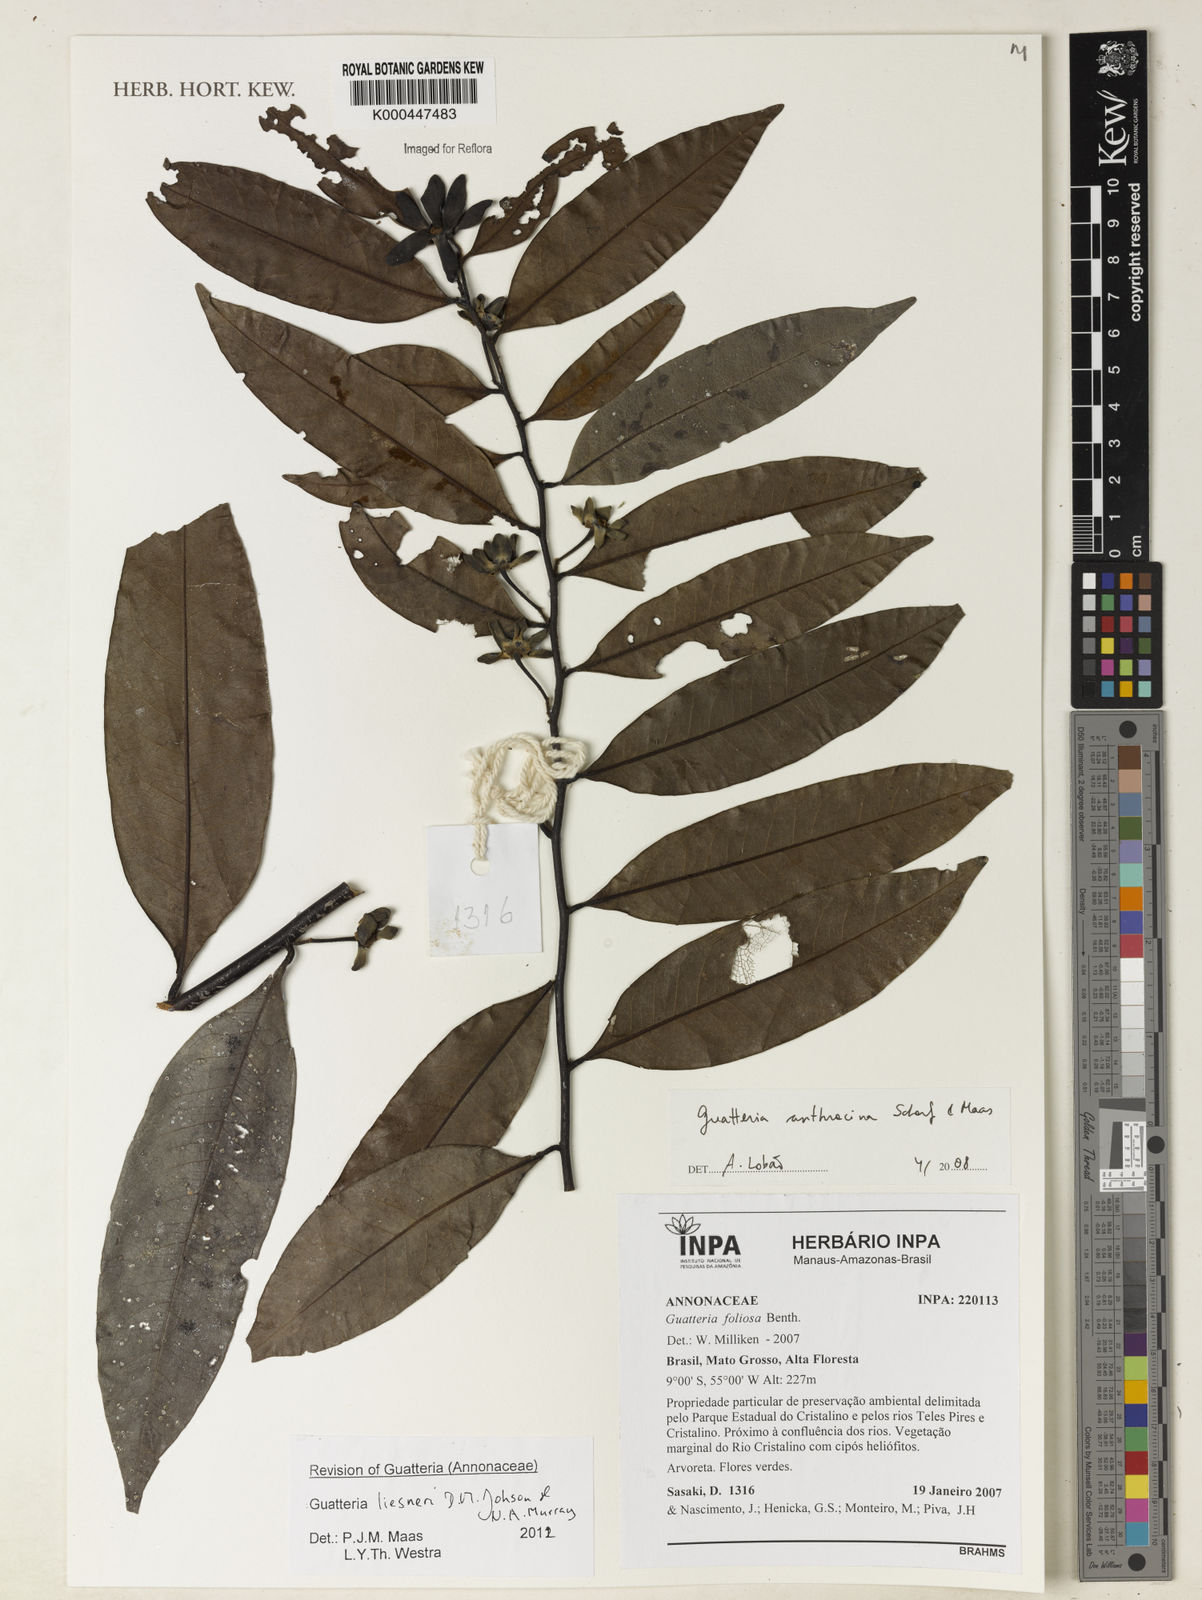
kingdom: Plantae
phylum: Tracheophyta
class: Magnoliopsida
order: Magnoliales
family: Annonaceae
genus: Guatteria
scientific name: Guatteria anthracina
